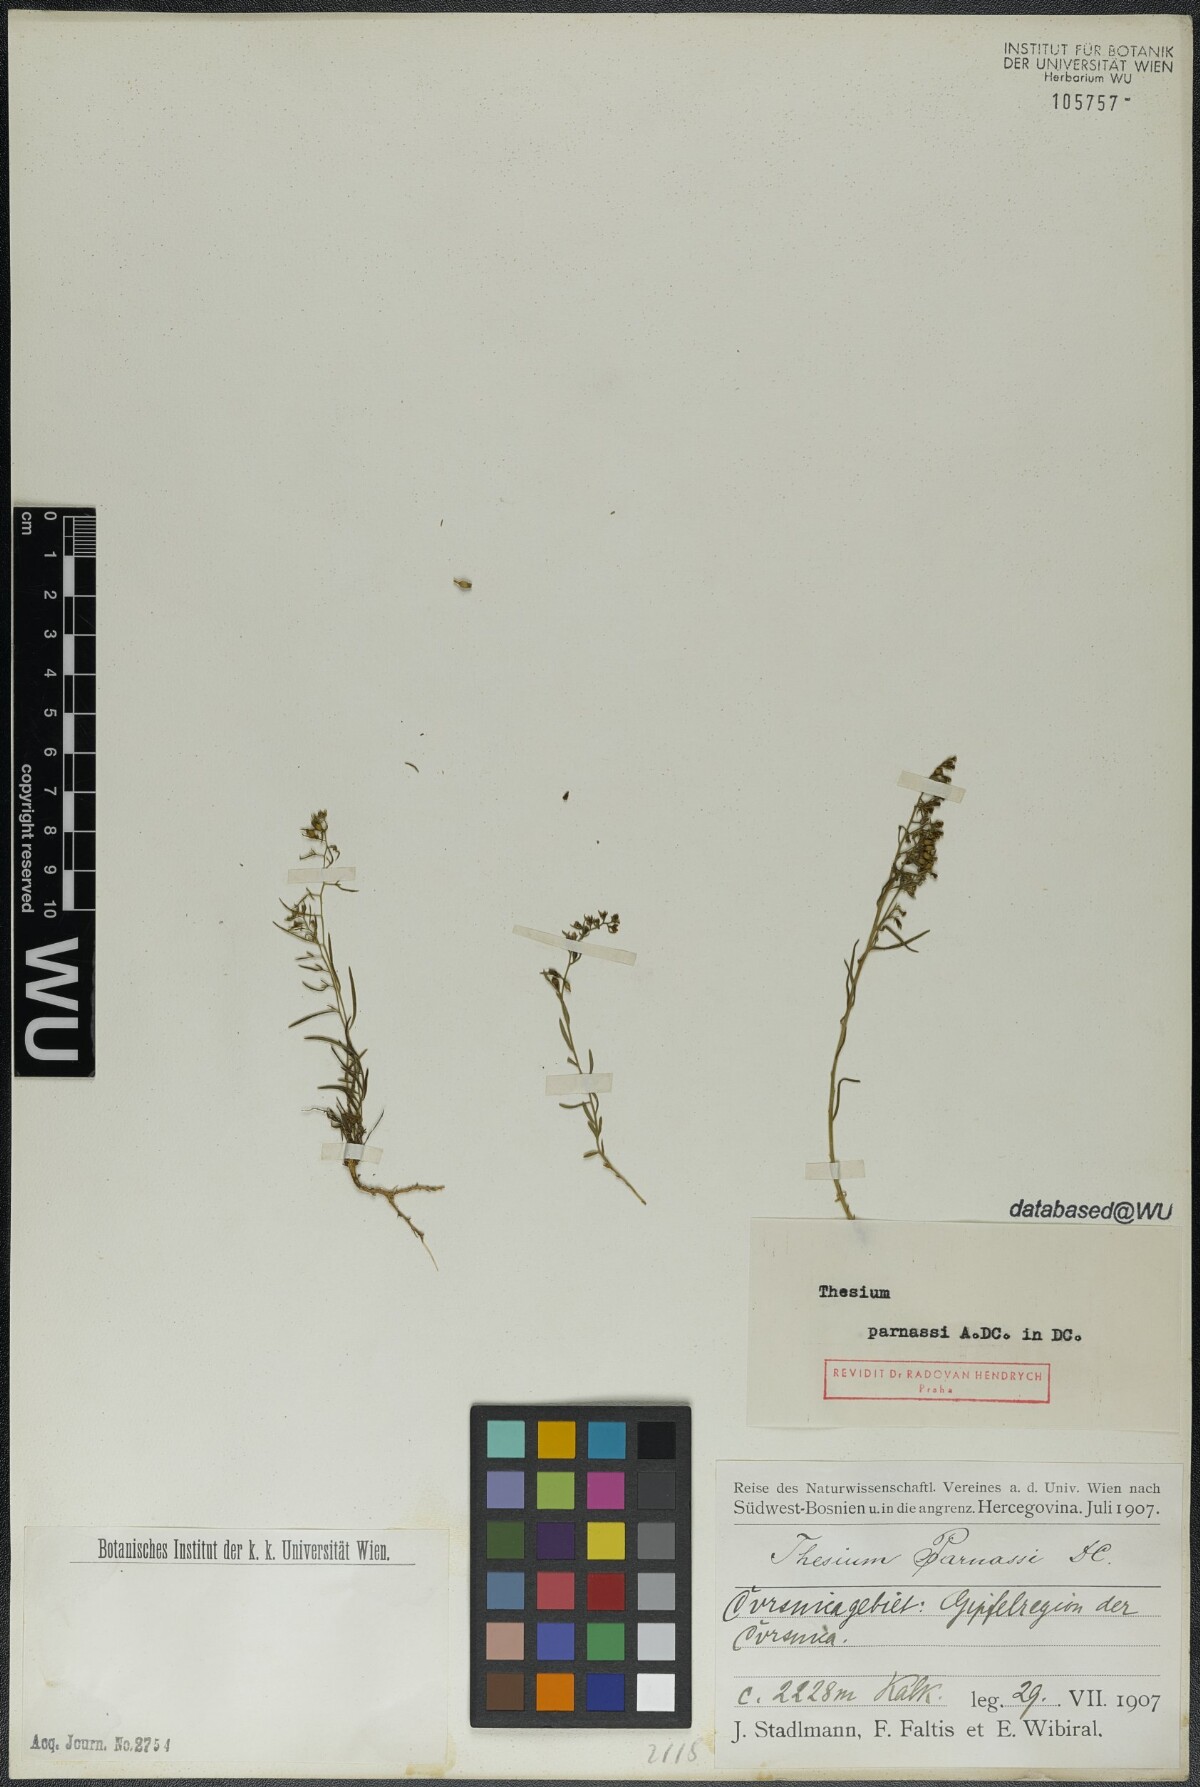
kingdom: Plantae
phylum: Tracheophyta
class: Magnoliopsida
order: Santalales
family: Thesiaceae
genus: Thesium
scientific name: Thesium parnassi
